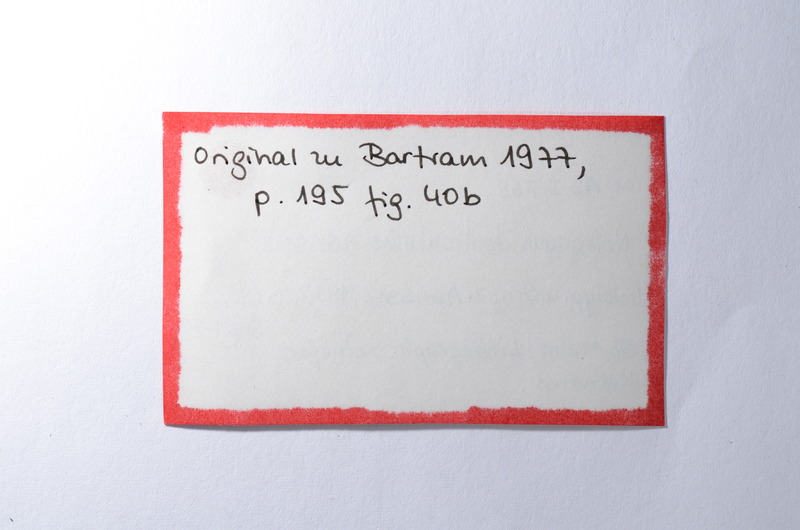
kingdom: Animalia
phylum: Chordata
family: Macrosemiidae
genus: Notagogus
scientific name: Notagogus denticulatus
